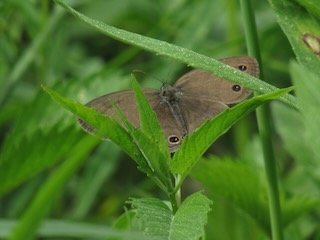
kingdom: Animalia
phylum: Arthropoda
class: Insecta
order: Lepidoptera
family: Nymphalidae
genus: Euptychia
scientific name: Euptychia cymela
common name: Little Wood Satyr
